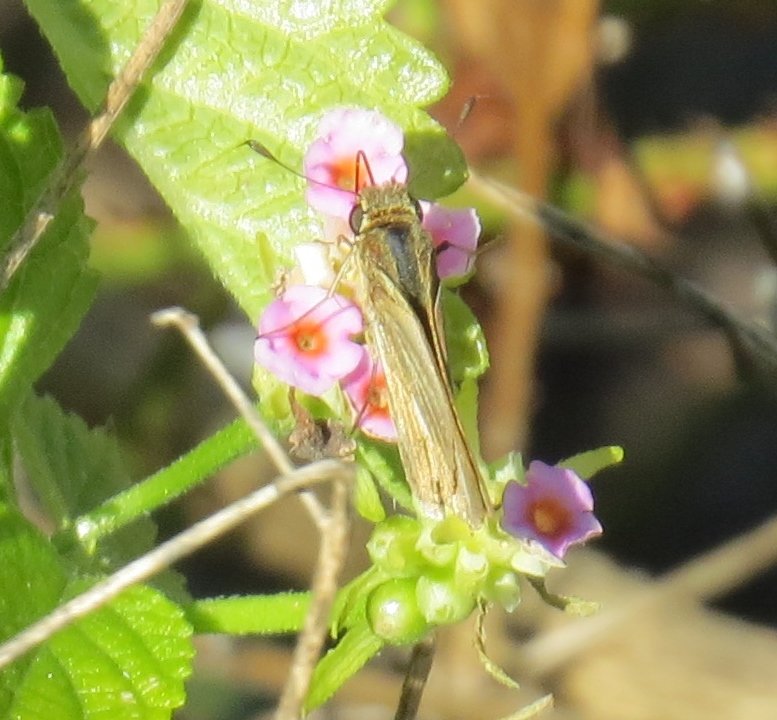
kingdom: Animalia
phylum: Arthropoda
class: Insecta
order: Lepidoptera
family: Hesperiidae
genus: Lerodea
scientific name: Lerodea eufala
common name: Eufala Skipper
